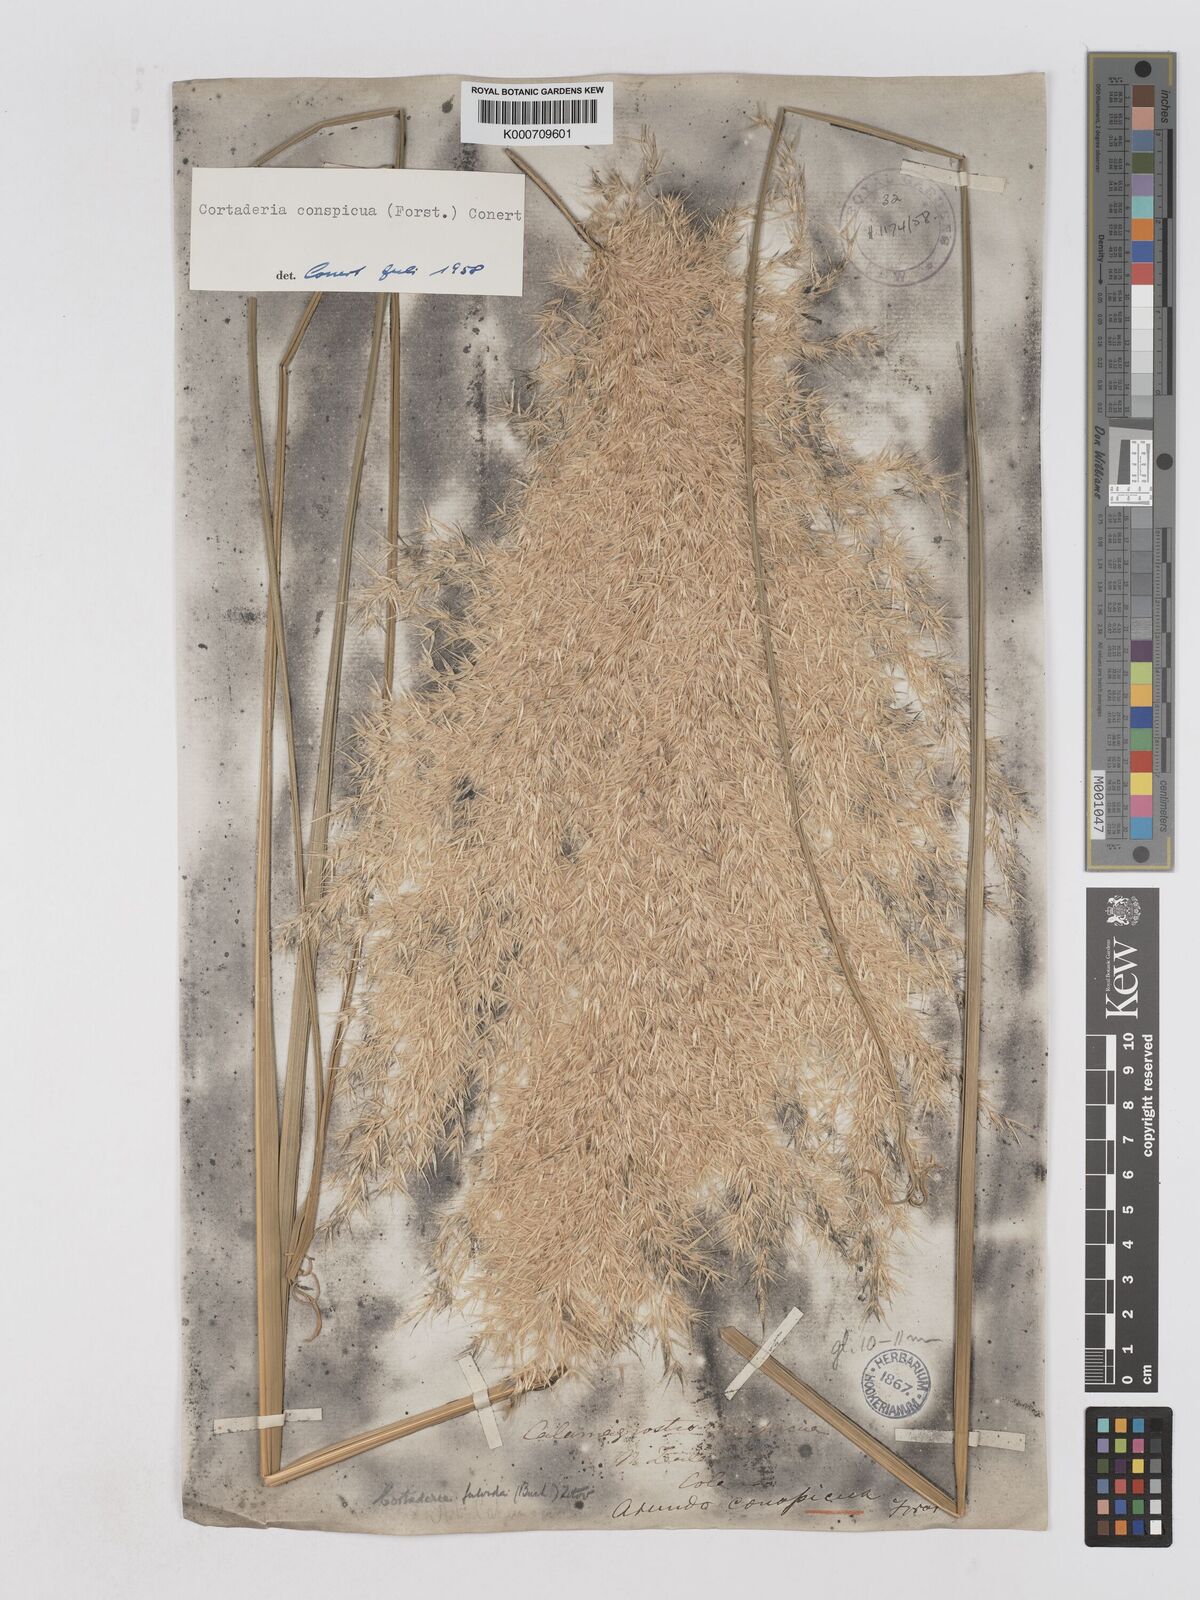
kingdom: Plantae
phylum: Tracheophyta
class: Liliopsida
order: Poales
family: Poaceae
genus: Austroderia
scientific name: Austroderia richardii
